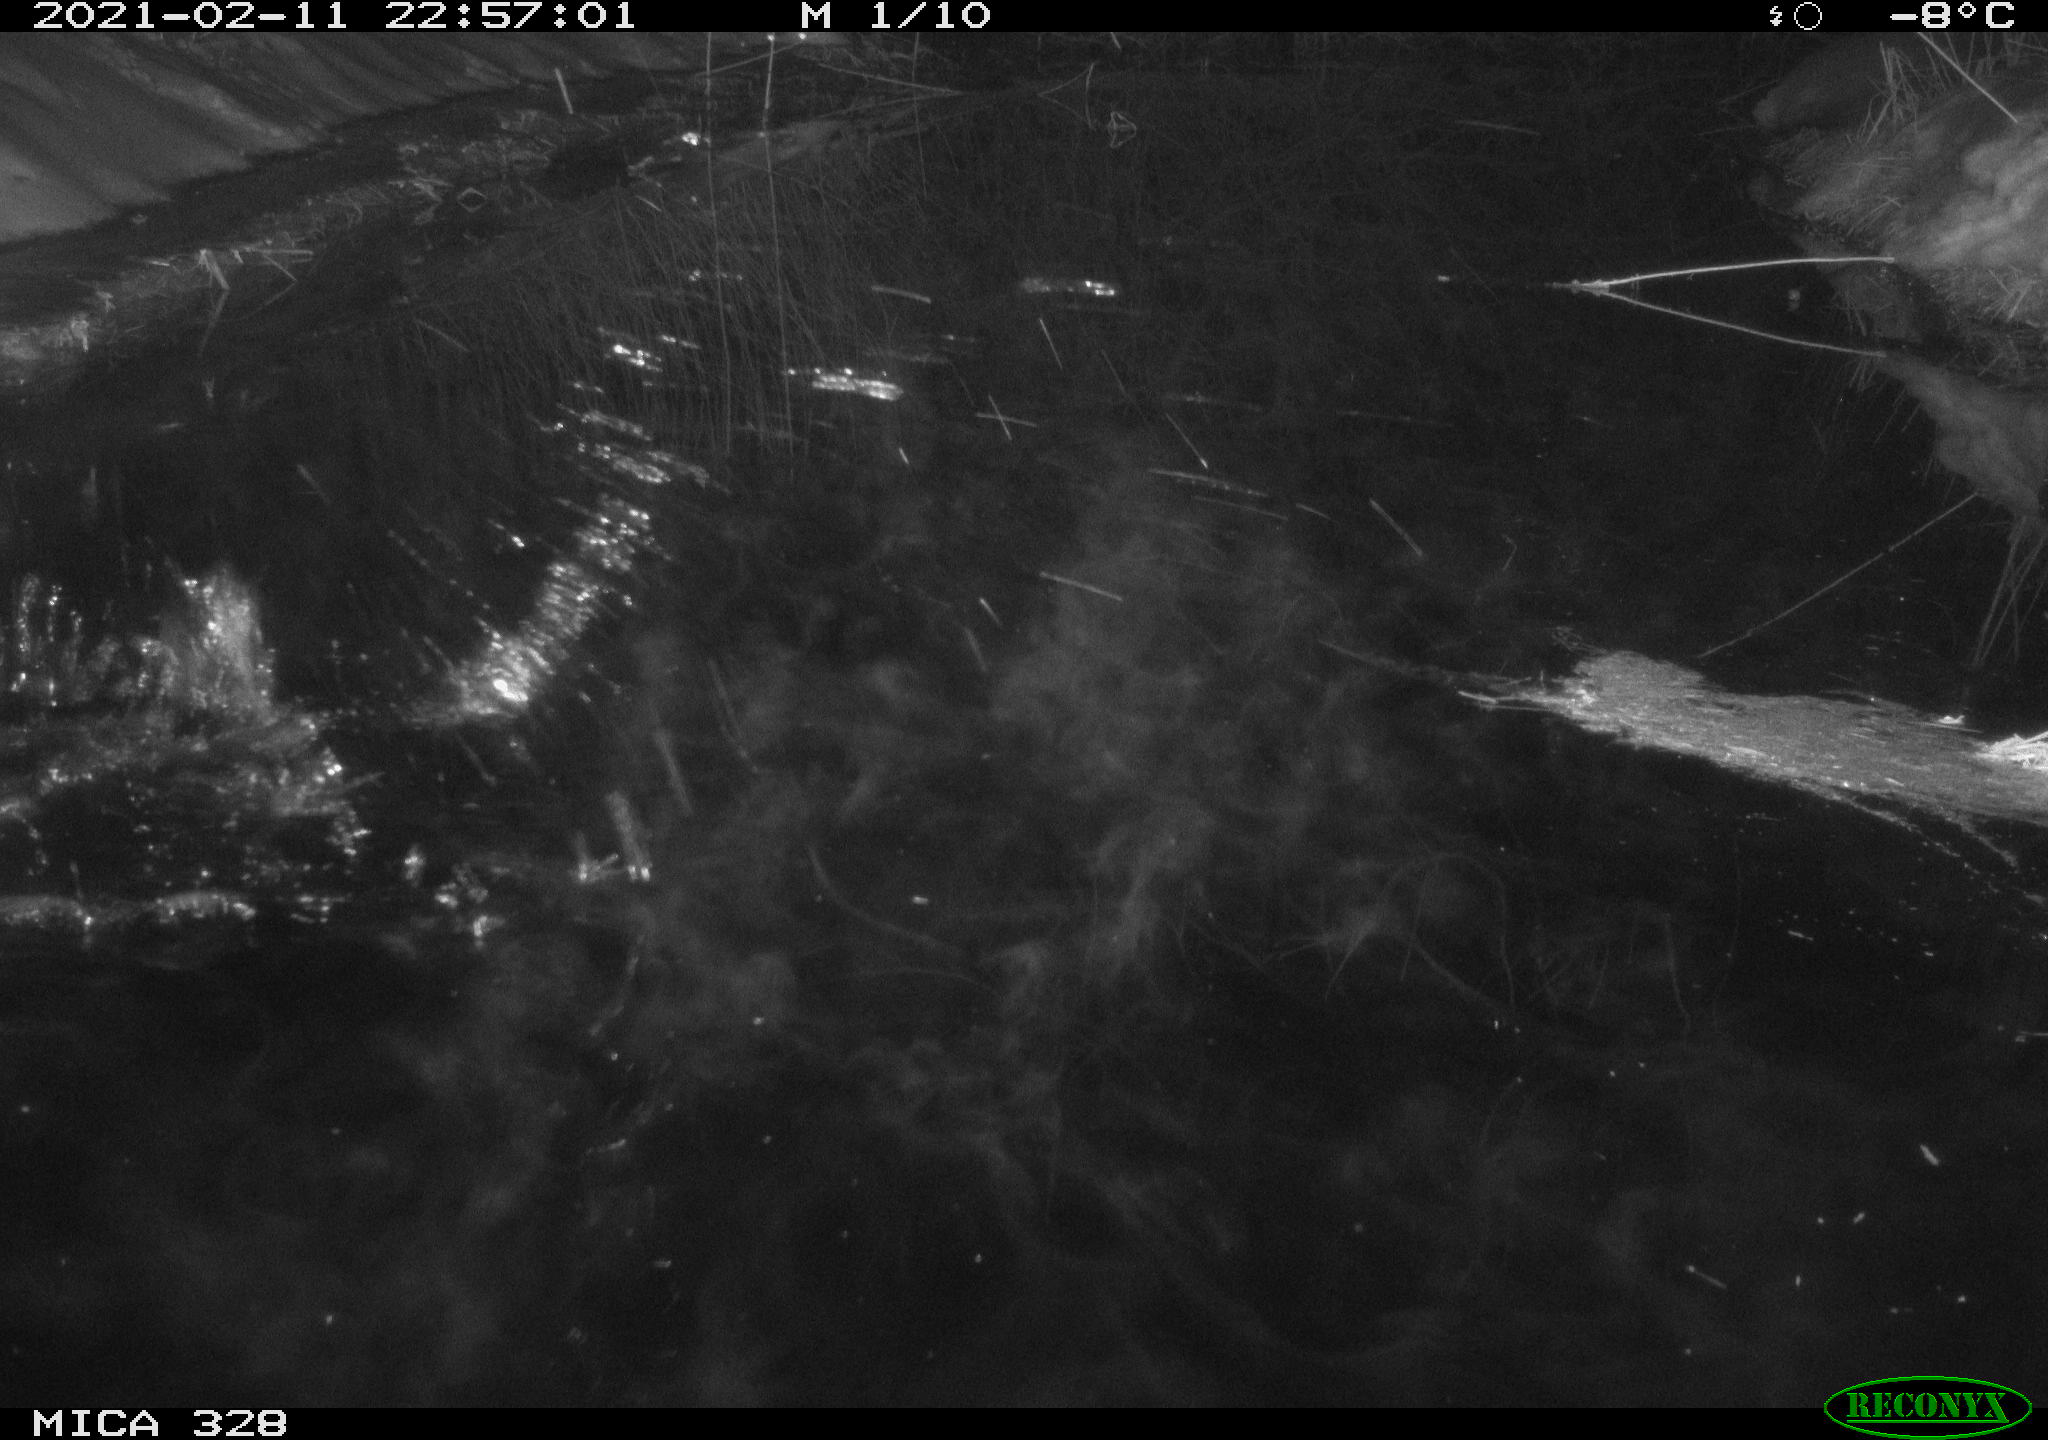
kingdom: Animalia
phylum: Chordata
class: Mammalia
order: Rodentia
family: Cricetidae
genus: Ondatra
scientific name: Ondatra zibethicus
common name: Muskrat
